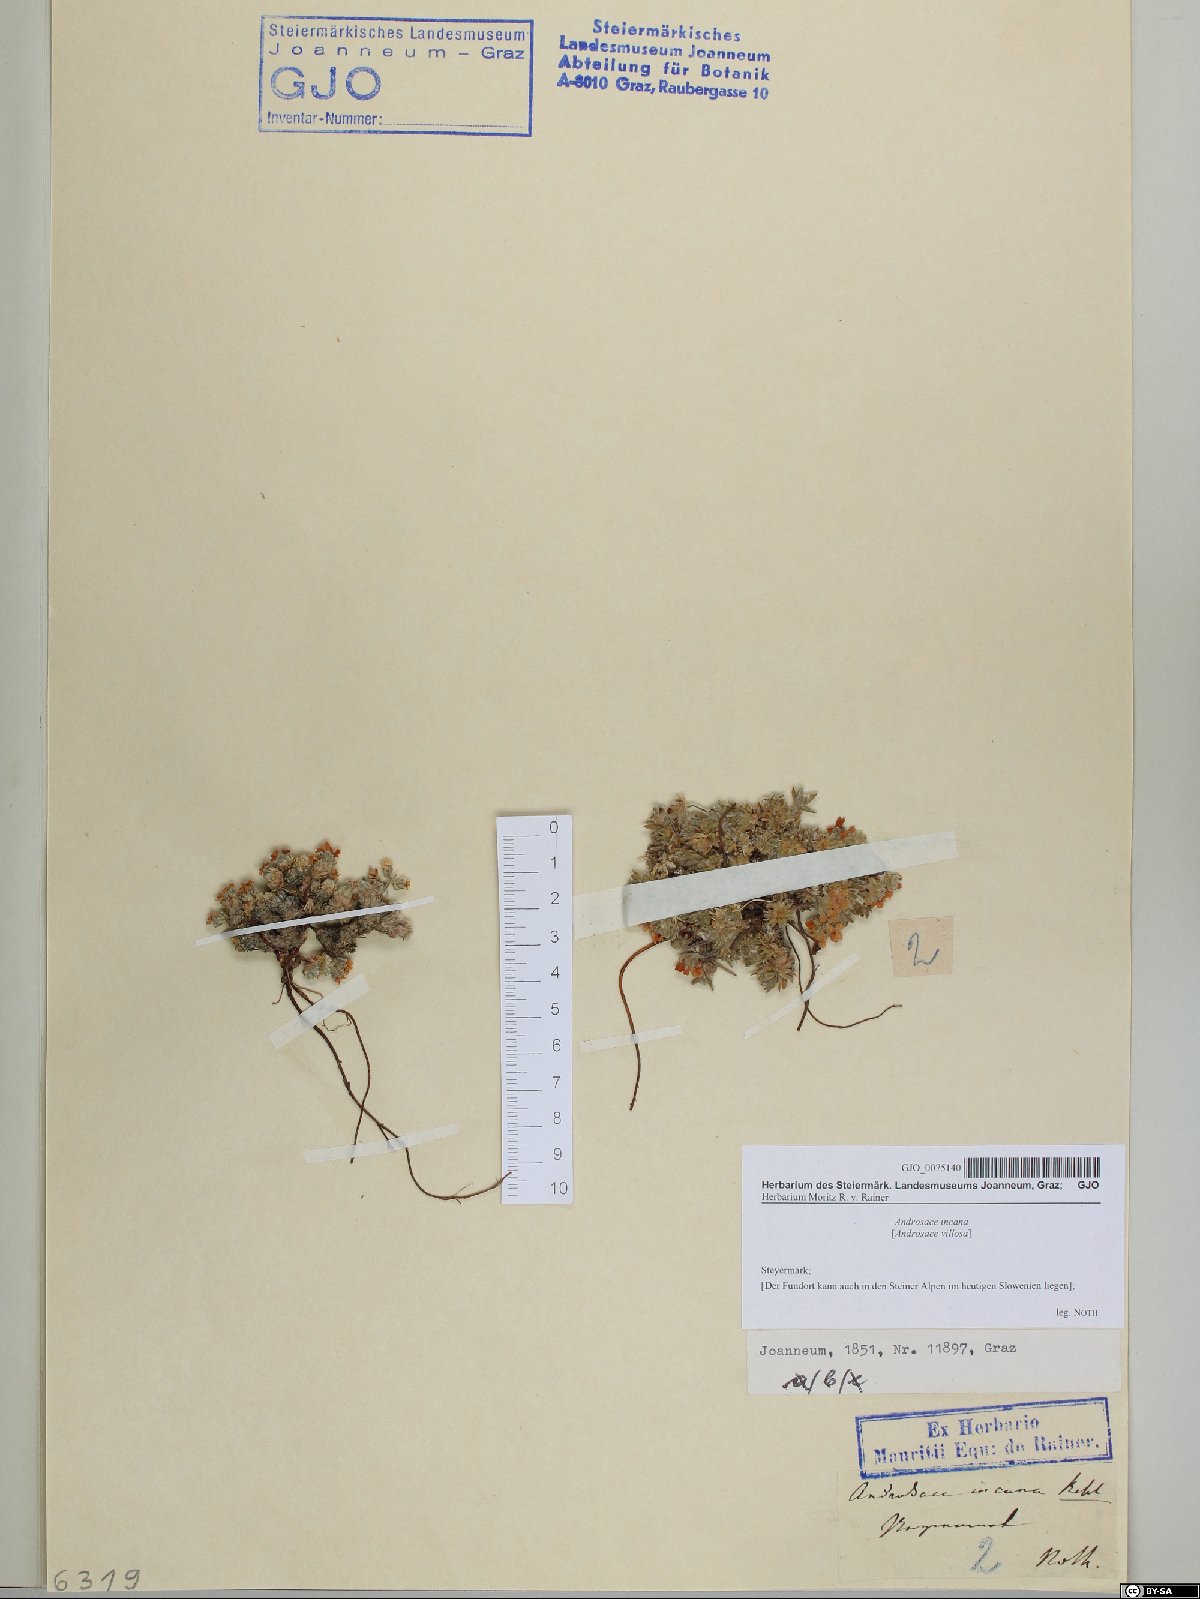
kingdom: Plantae
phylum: Tracheophyta
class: Magnoliopsida
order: Ericales
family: Primulaceae
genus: Androsace
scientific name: Androsace incana
